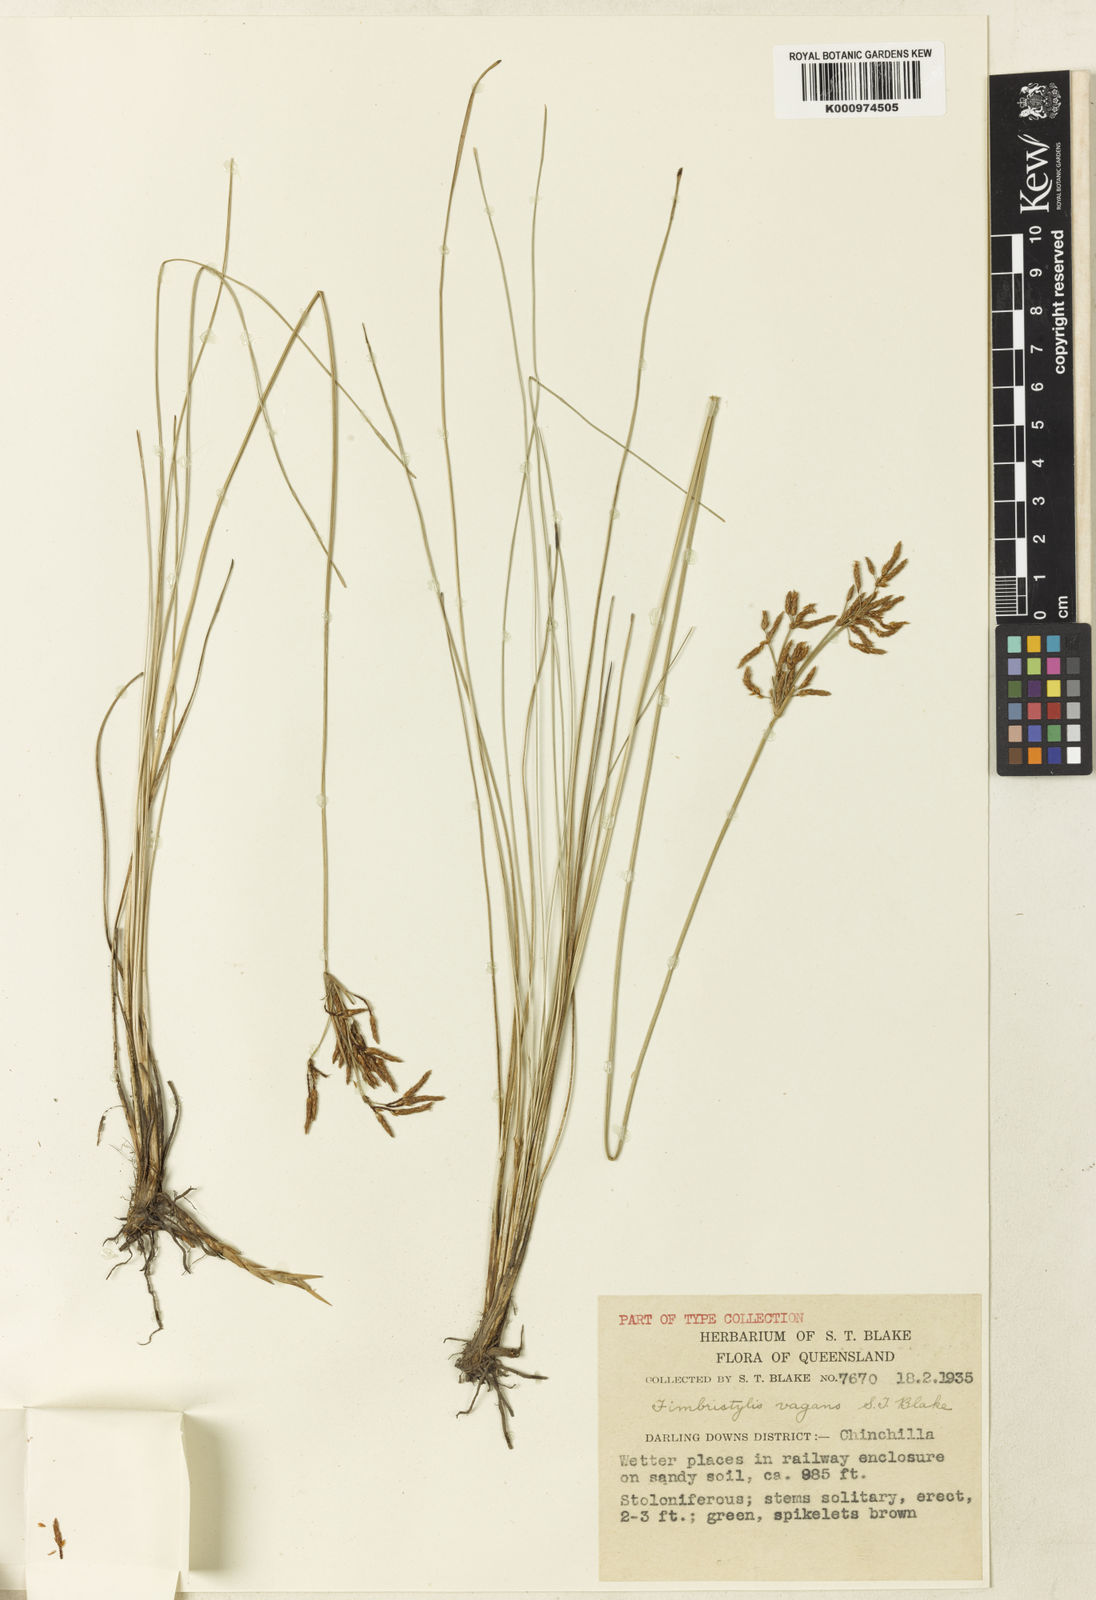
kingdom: Plantae
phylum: Tracheophyta
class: Liliopsida
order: Poales
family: Cyperaceae
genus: Fimbristylis
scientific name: Fimbristylis vagans
